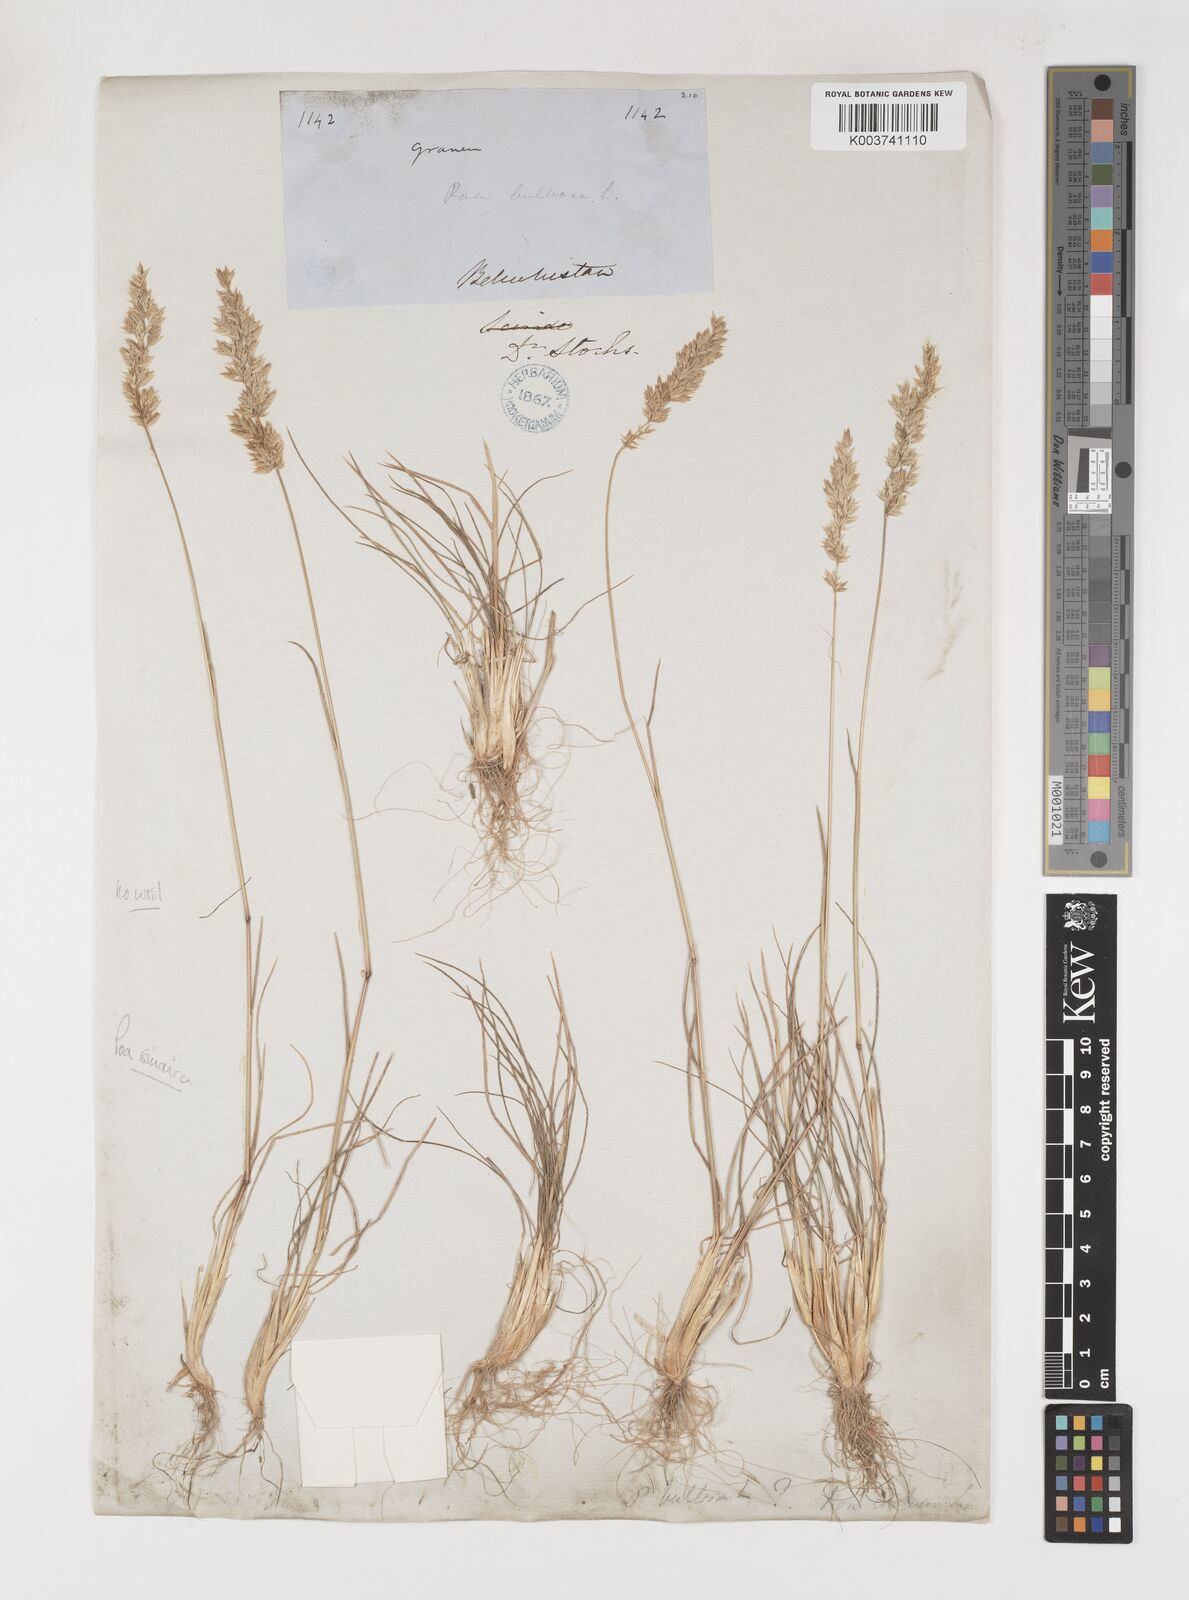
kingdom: Plantae
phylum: Tracheophyta
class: Liliopsida
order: Poales
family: Poaceae
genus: Poa
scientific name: Poa sinaica
